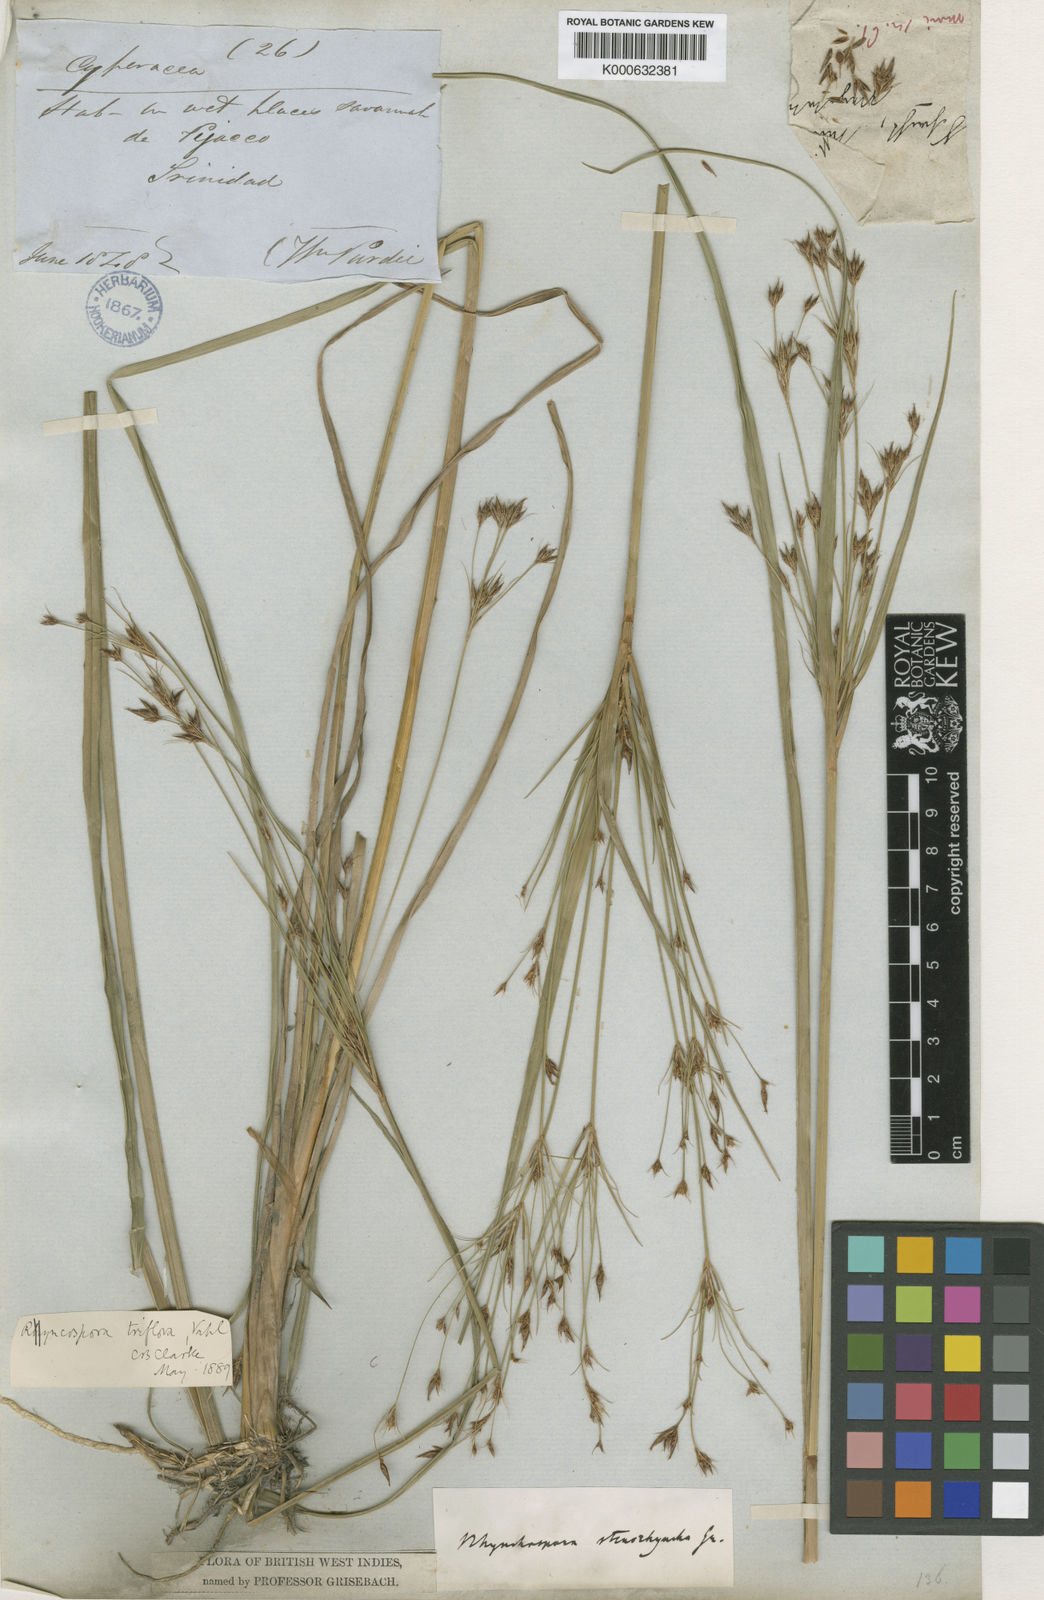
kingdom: Plantae
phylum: Tracheophyta
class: Liliopsida
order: Poales
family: Cyperaceae
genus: Rhynchospora
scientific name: Rhynchospora triflora
